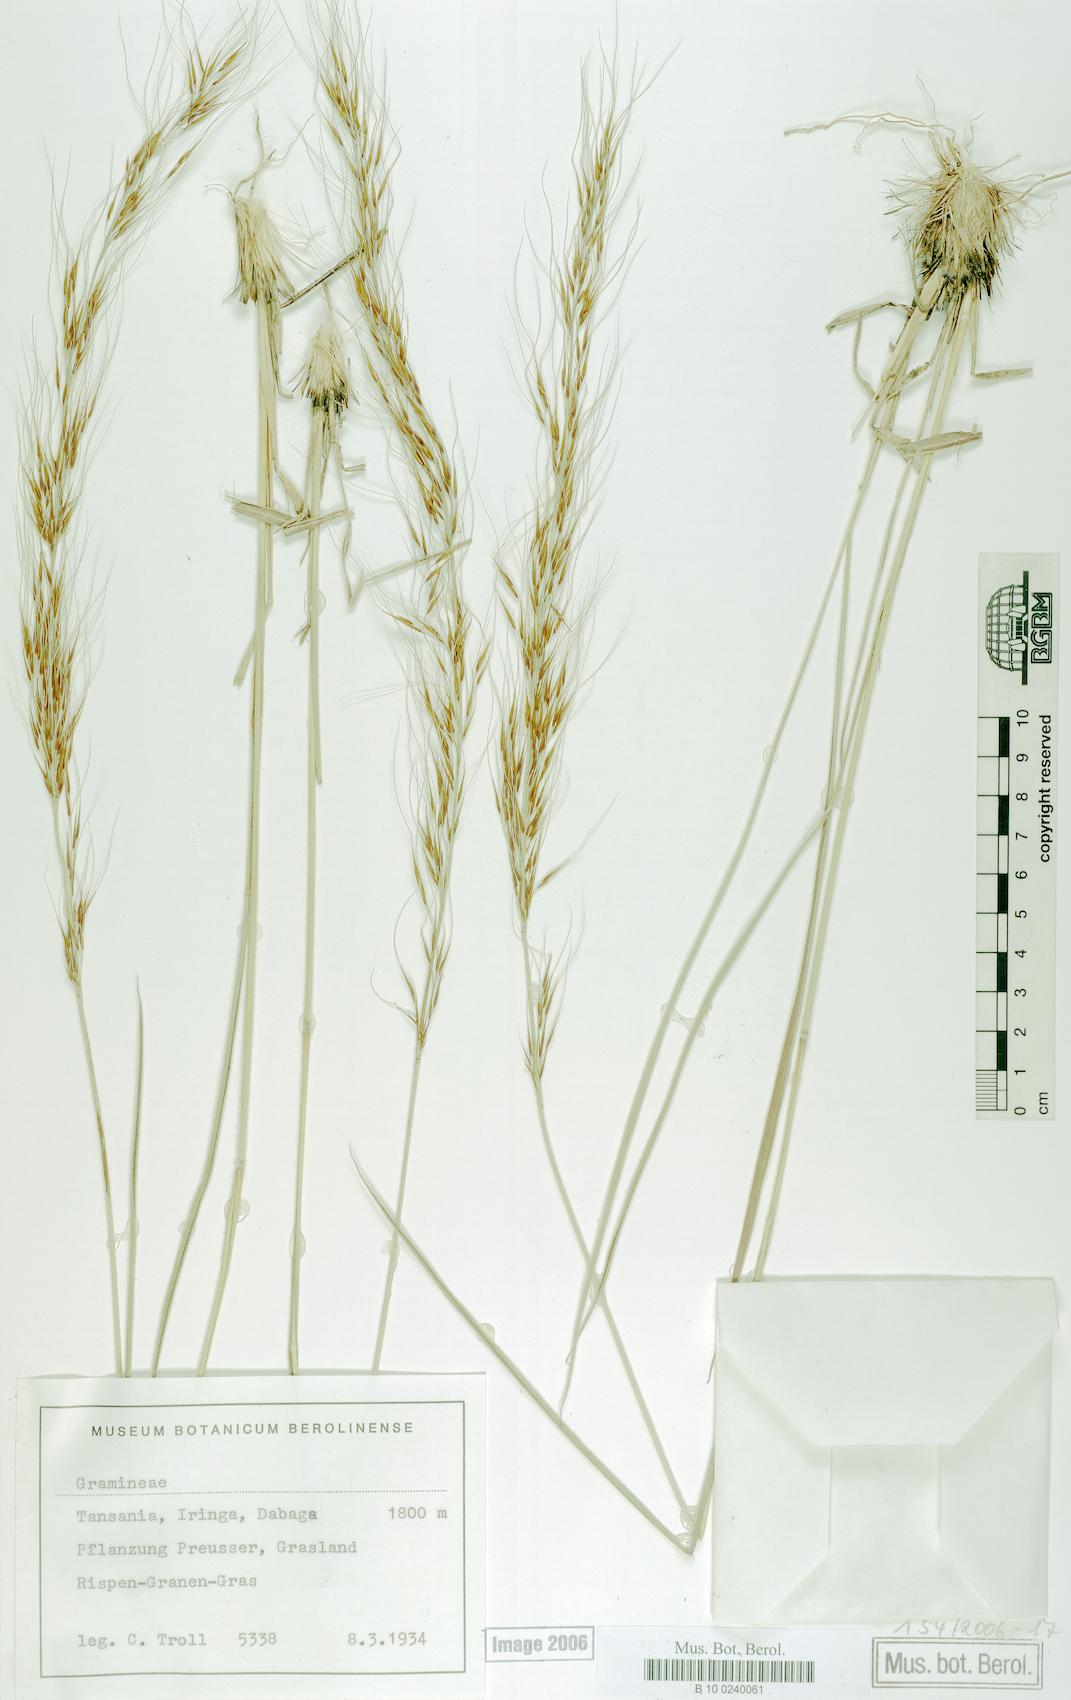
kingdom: Plantae
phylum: Tracheophyta
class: Liliopsida
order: Poales
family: Poaceae
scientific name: Poaceae
